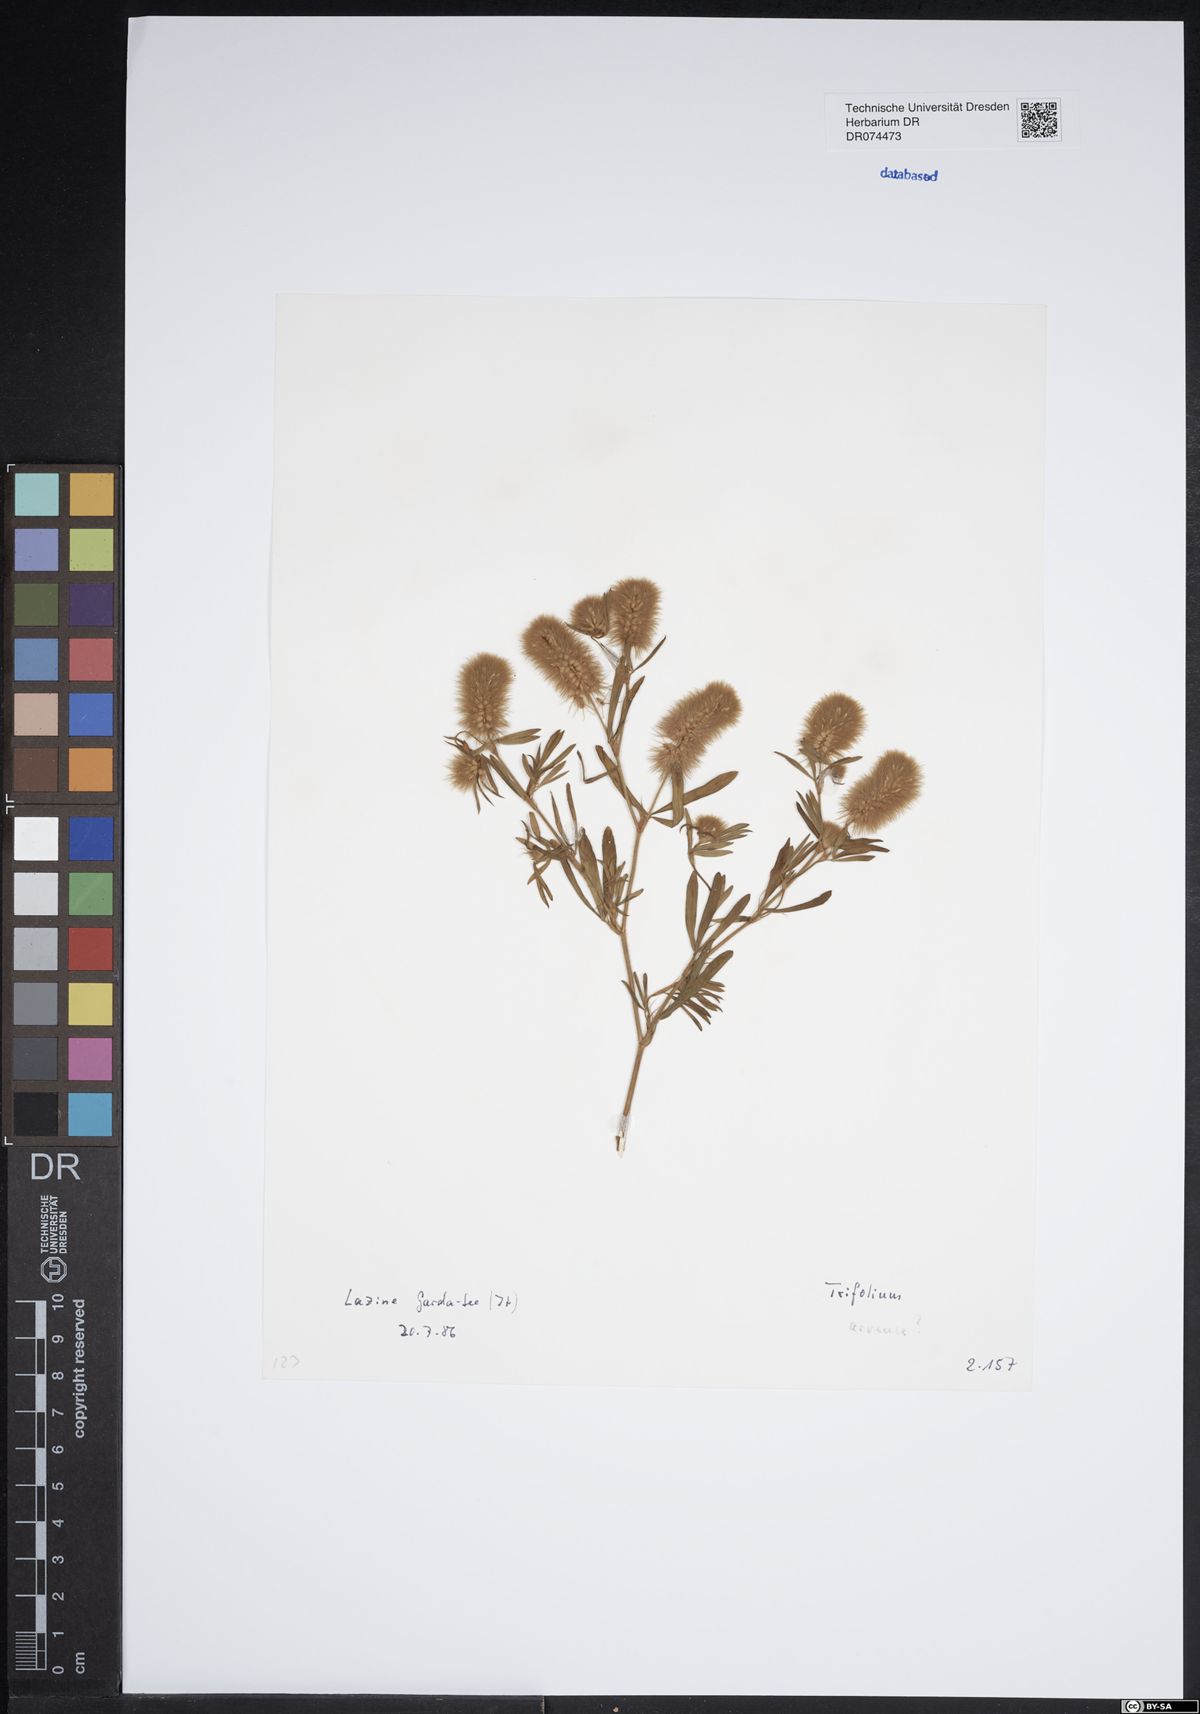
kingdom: Plantae
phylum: Tracheophyta
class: Magnoliopsida
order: Fabales
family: Fabaceae
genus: Trifolium
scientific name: Trifolium arvense
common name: Hare's-foot clover
